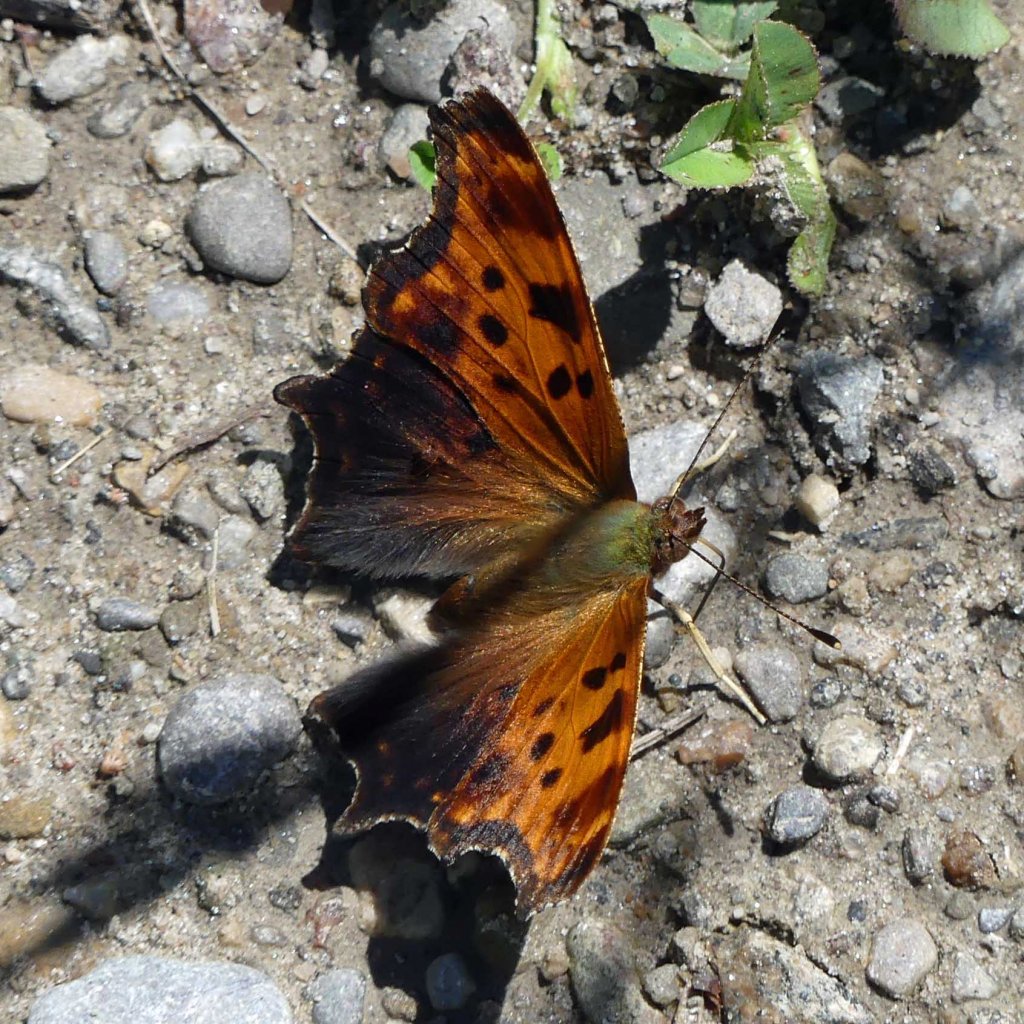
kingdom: Animalia
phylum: Arthropoda
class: Insecta
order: Lepidoptera
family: Nymphalidae
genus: Polygonia
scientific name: Polygonia comma
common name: Eastern Comma
